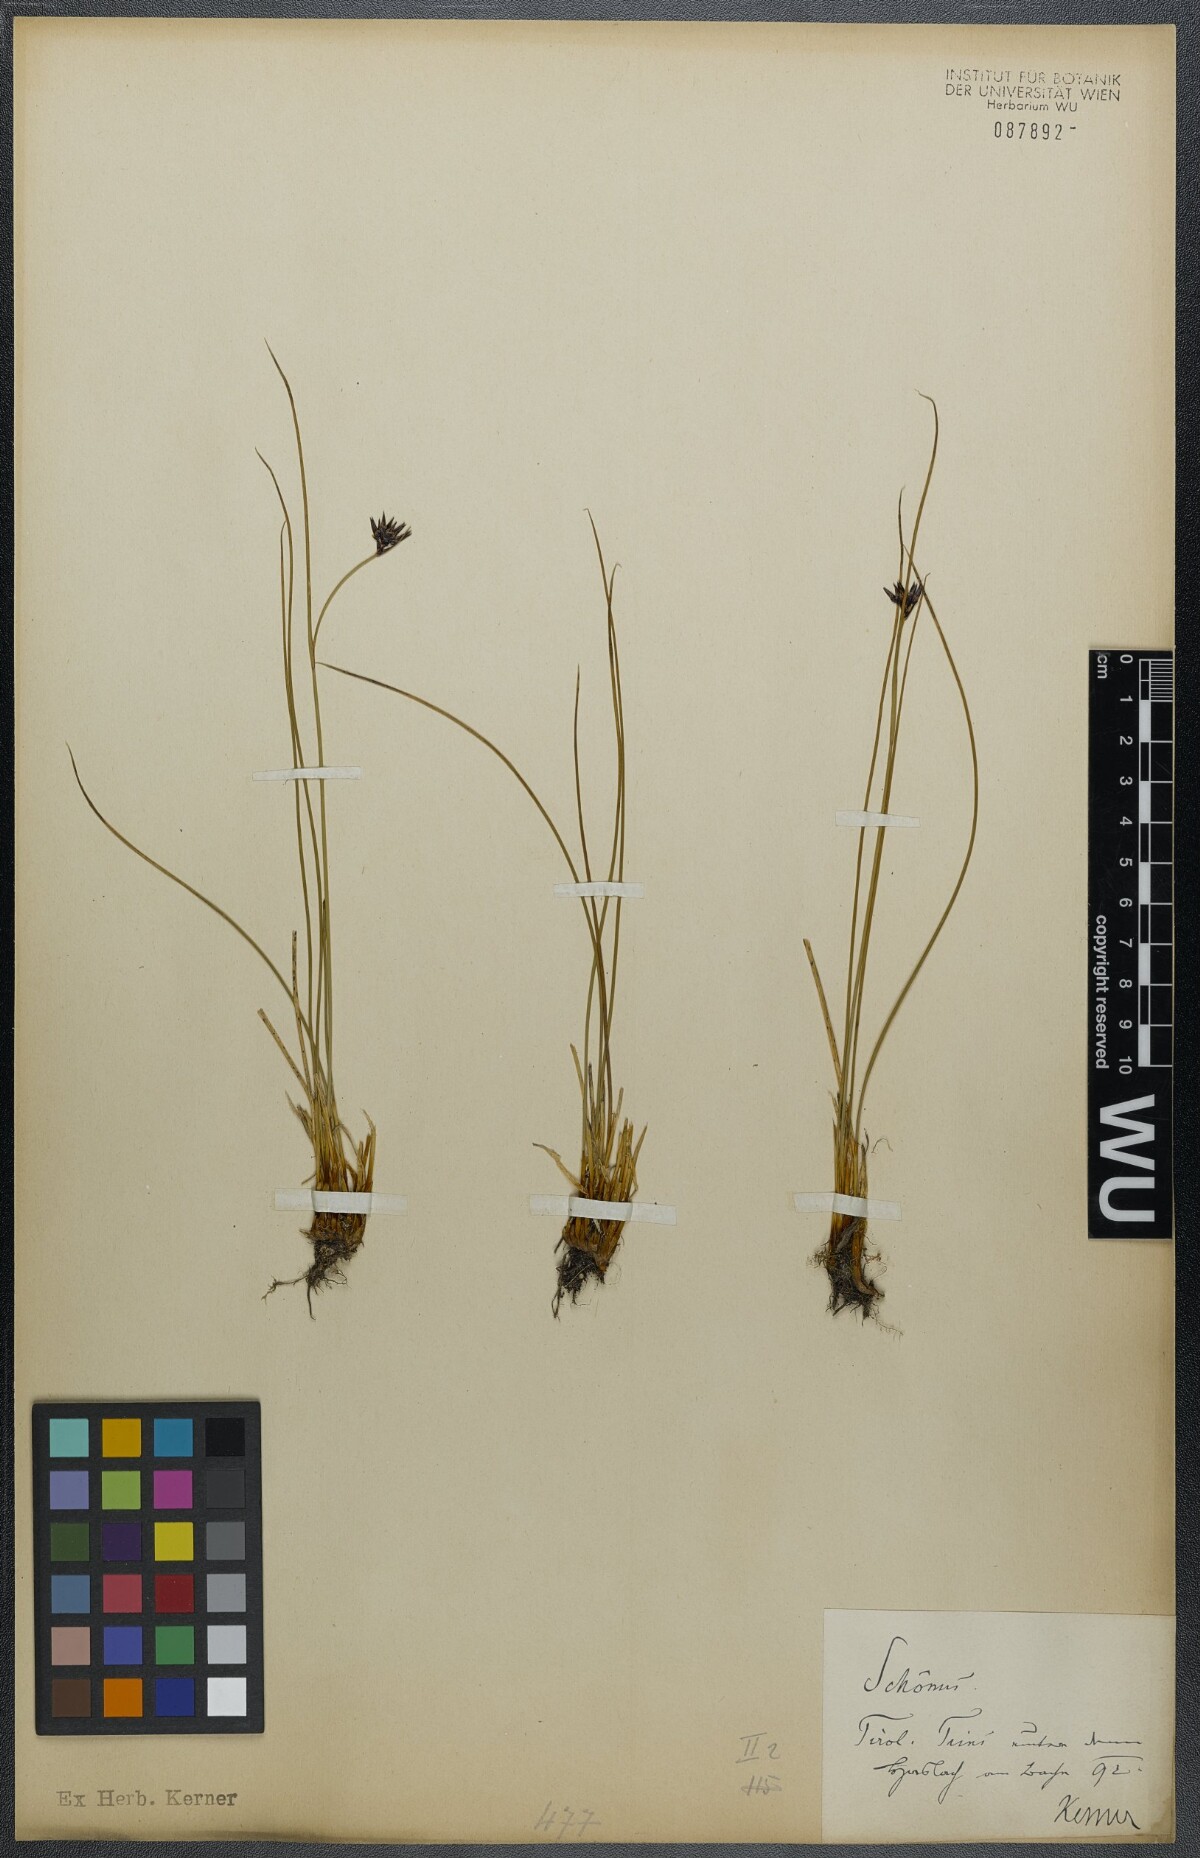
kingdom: Plantae
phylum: Tracheophyta
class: Liliopsida
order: Poales
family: Cyperaceae
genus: Schoenus
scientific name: Schoenus ferrugineus
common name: Brown bog-rush
